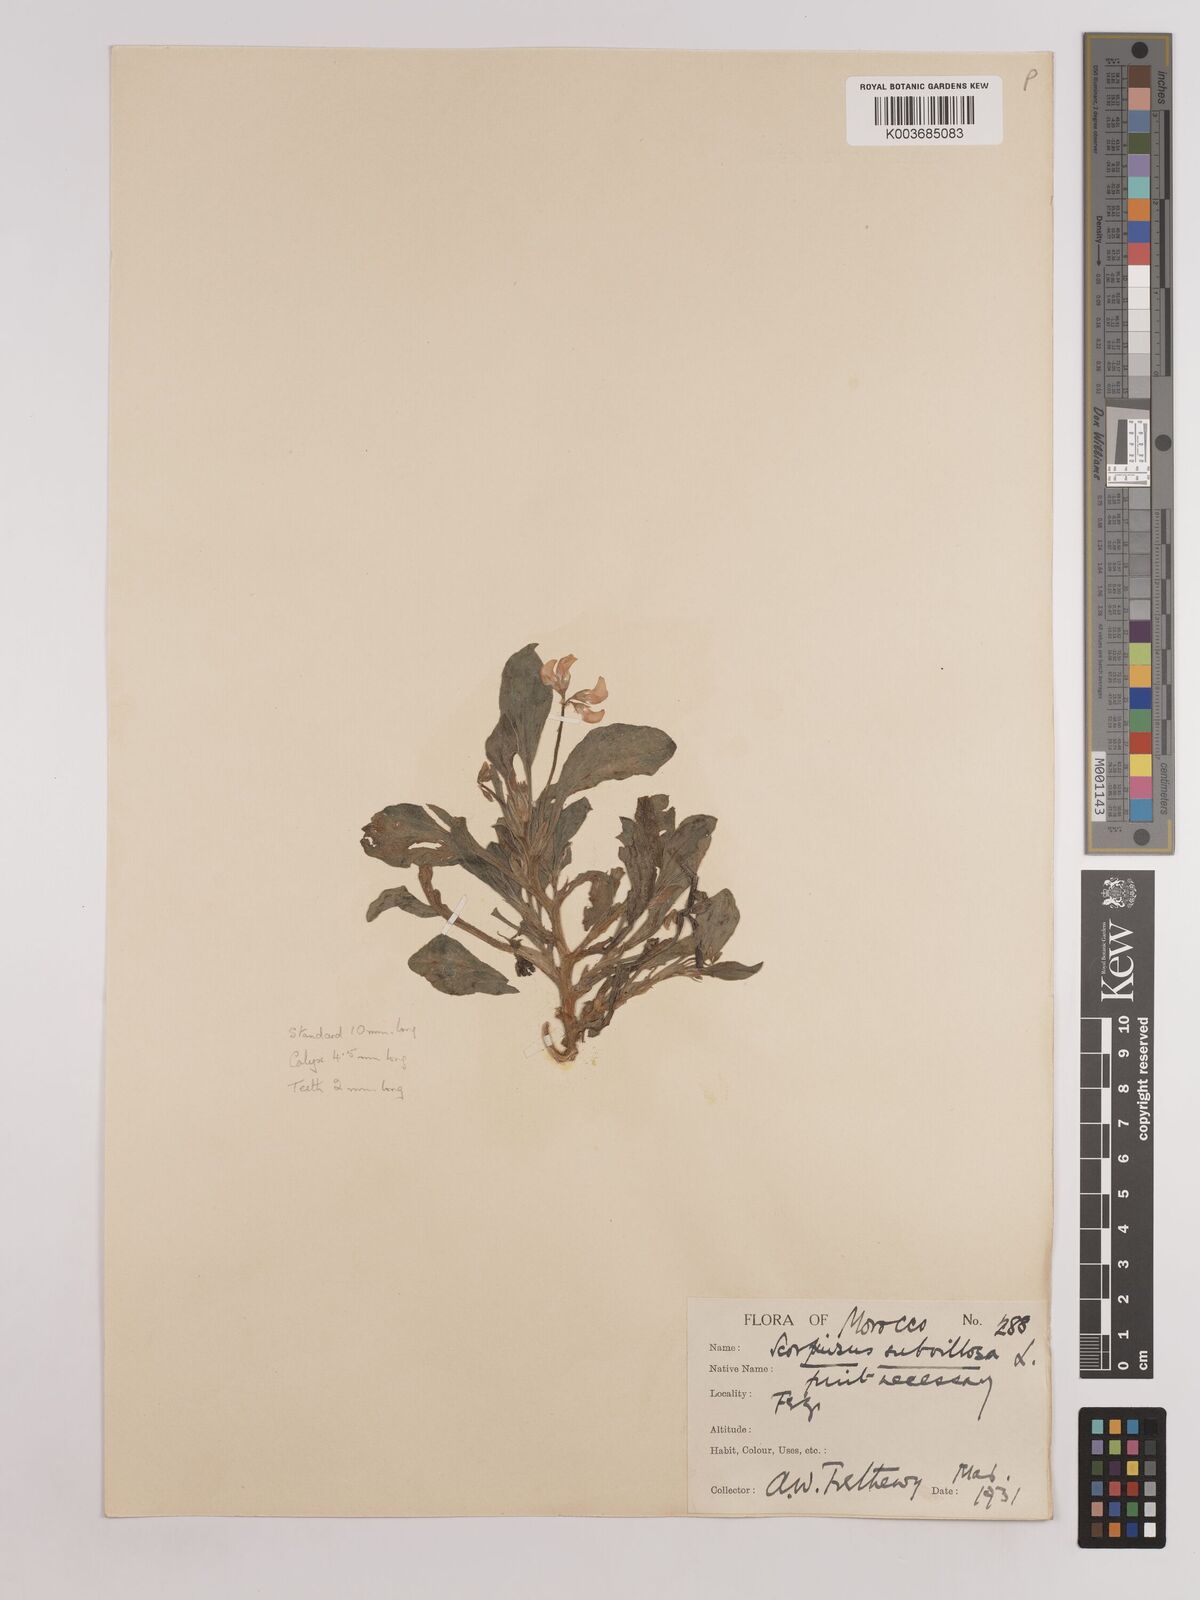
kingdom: Plantae
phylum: Tracheophyta
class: Magnoliopsida
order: Fabales
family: Fabaceae
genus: Scorpiurus
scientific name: Scorpiurus muricatus
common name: Caterpillar-plant
